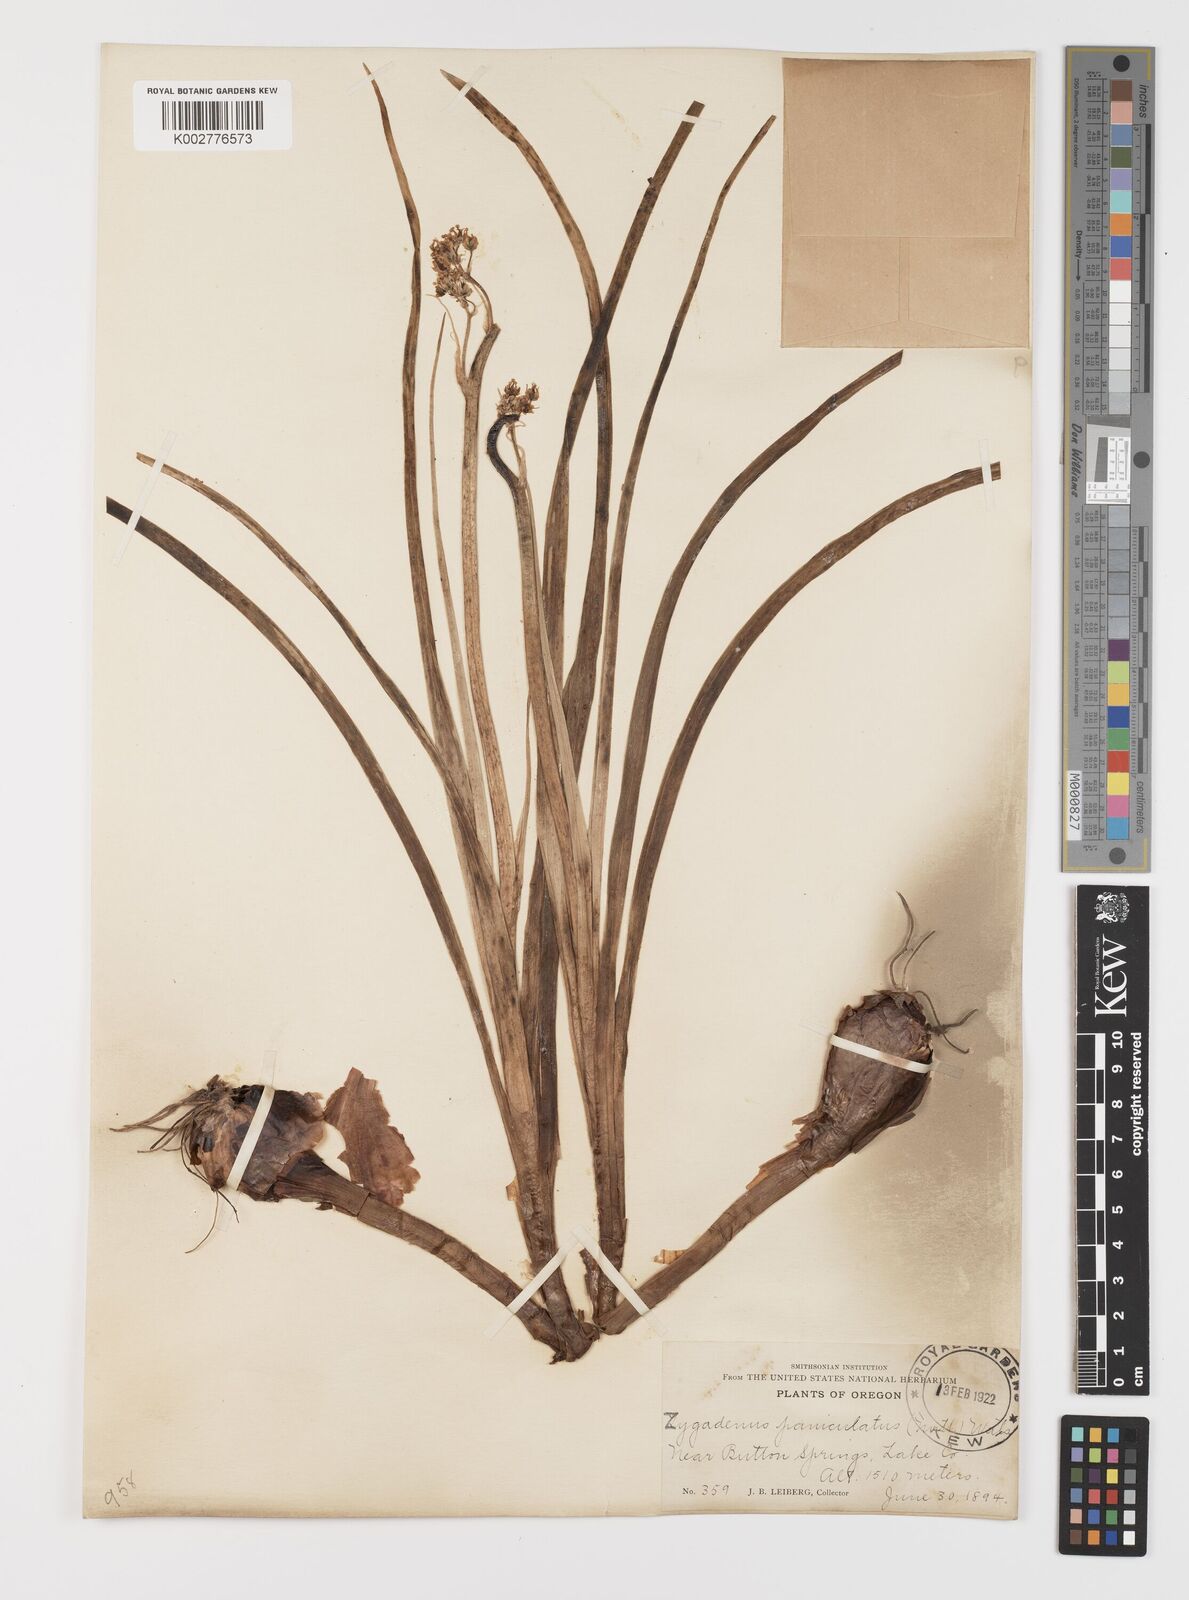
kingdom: Plantae
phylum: Tracheophyta
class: Liliopsida
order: Liliales
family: Melanthiaceae
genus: Toxicoscordion
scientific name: Toxicoscordion paniculatum
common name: Foothill death camas
